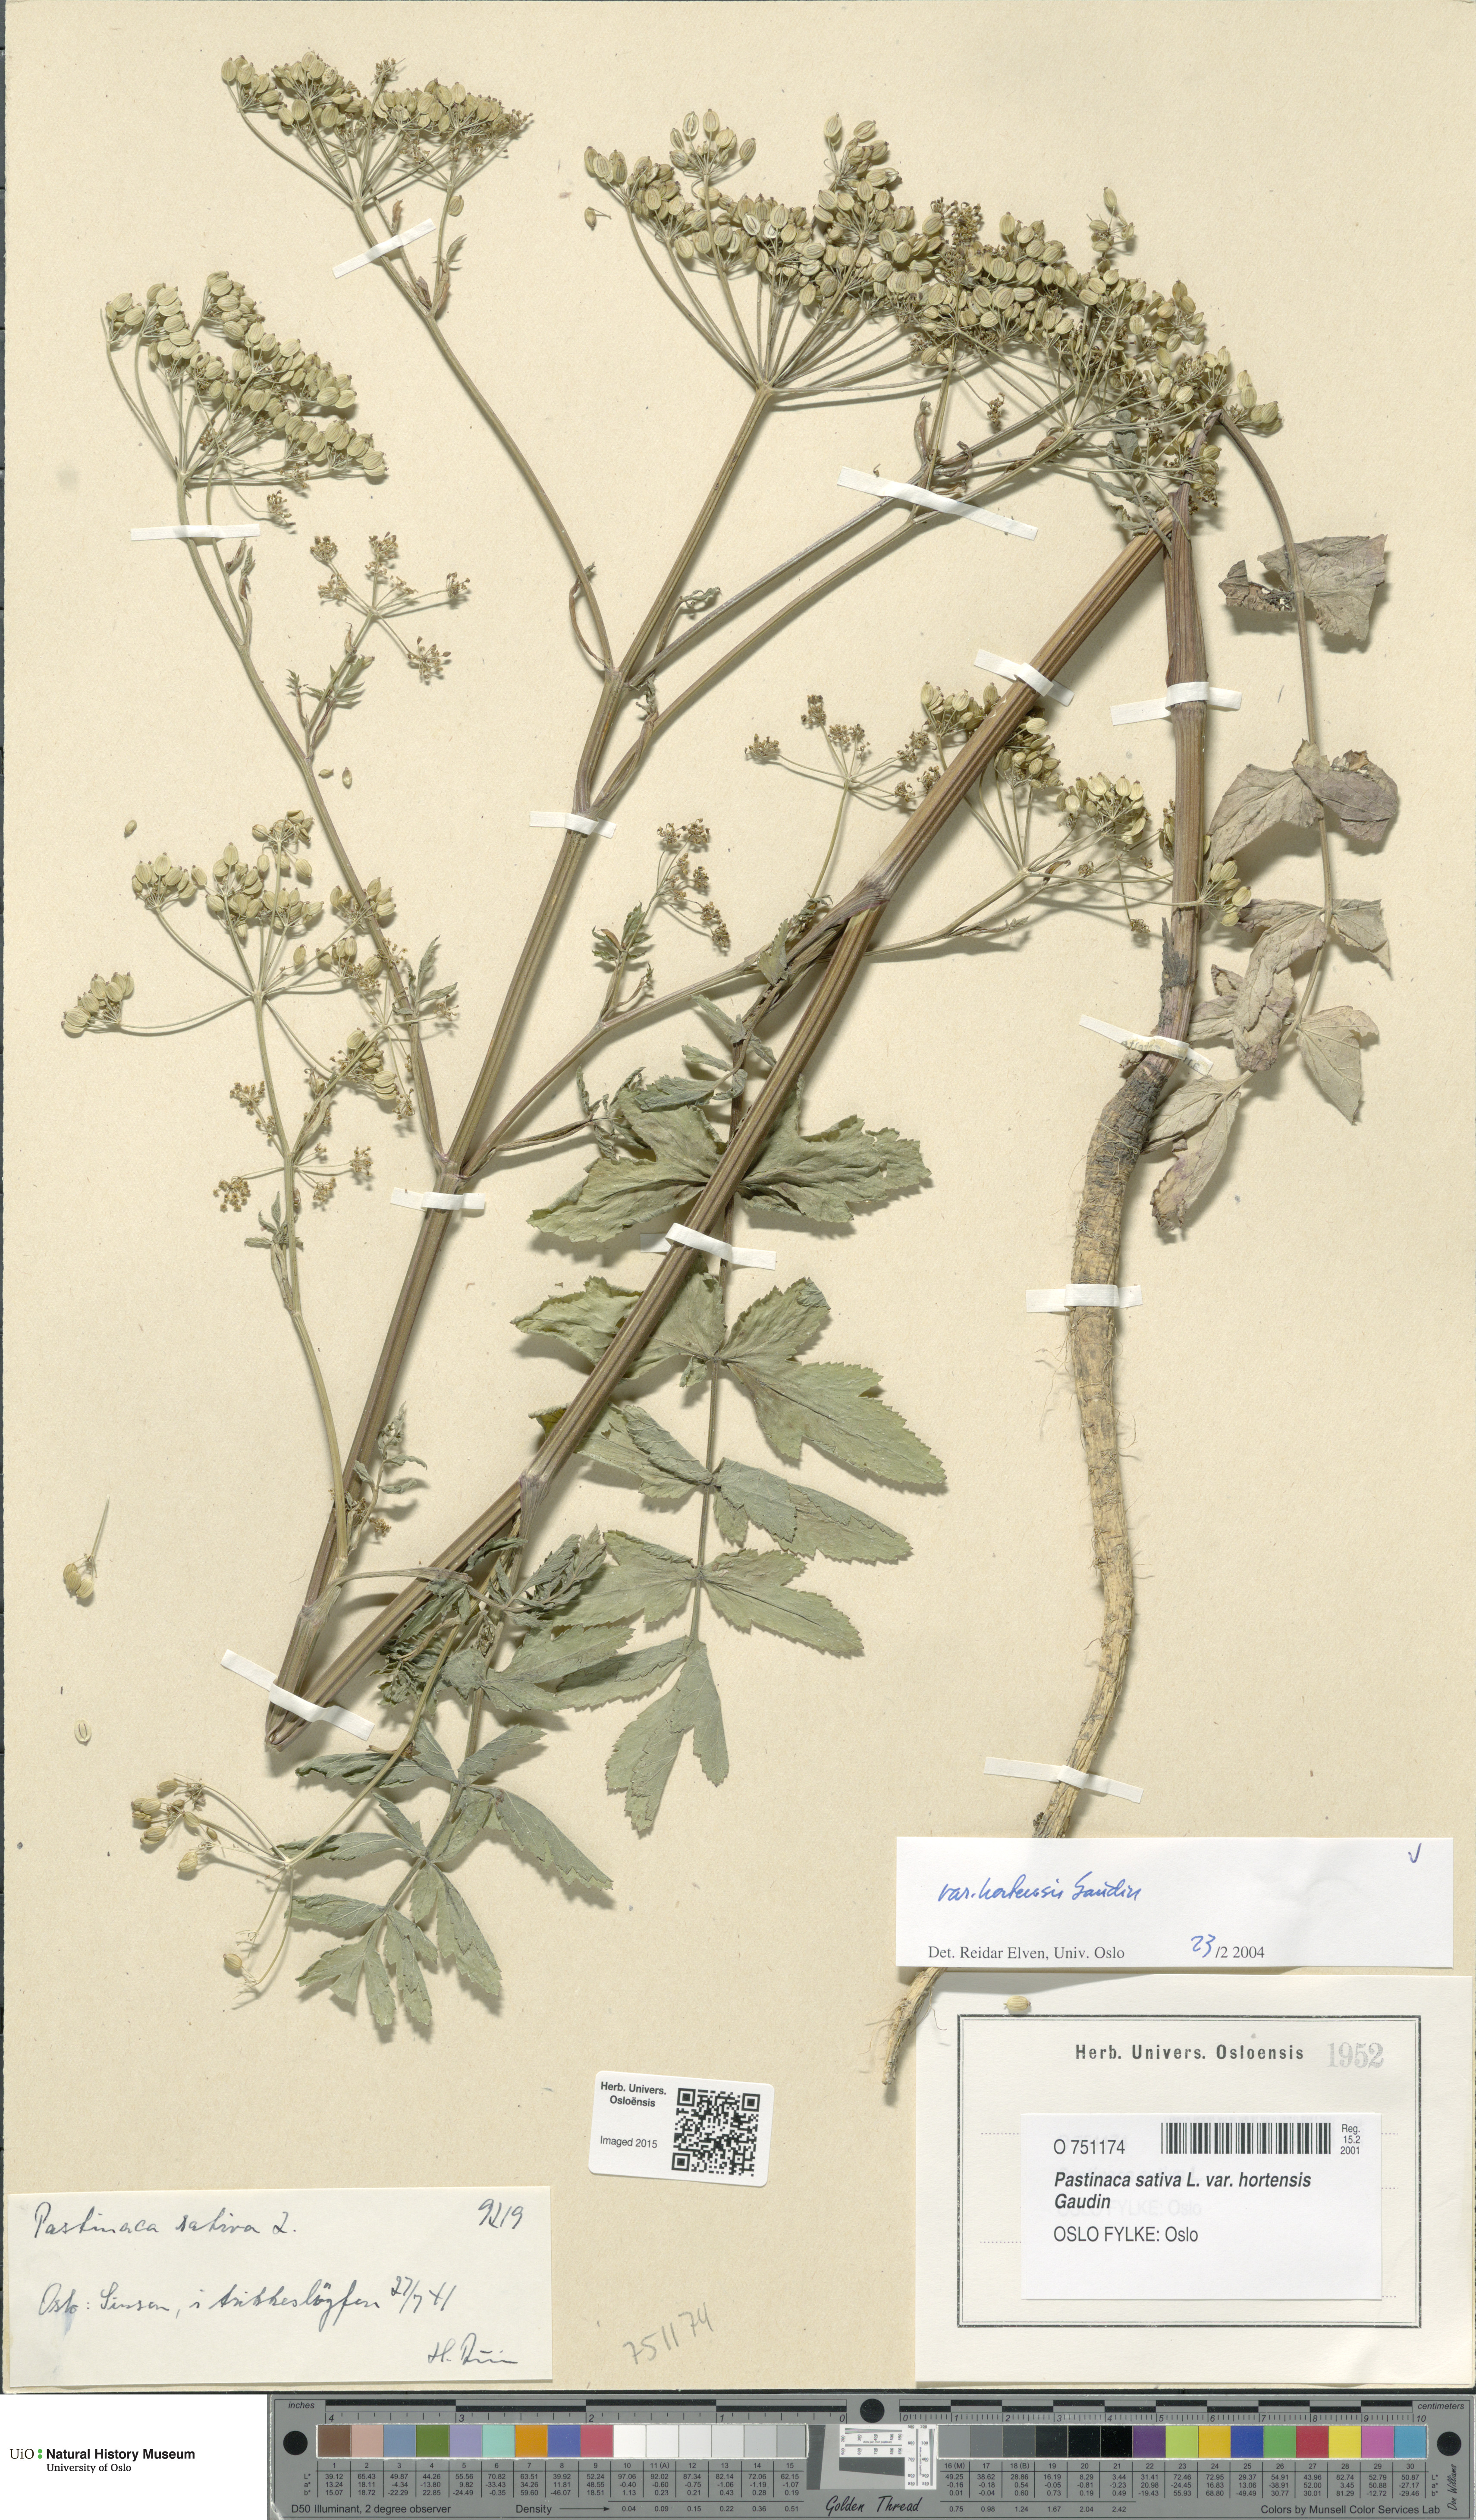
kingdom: Plantae
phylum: Tracheophyta
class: Magnoliopsida
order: Apiales
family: Apiaceae
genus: Pastinaca
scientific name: Pastinaca sativa
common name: Wild parsnip
